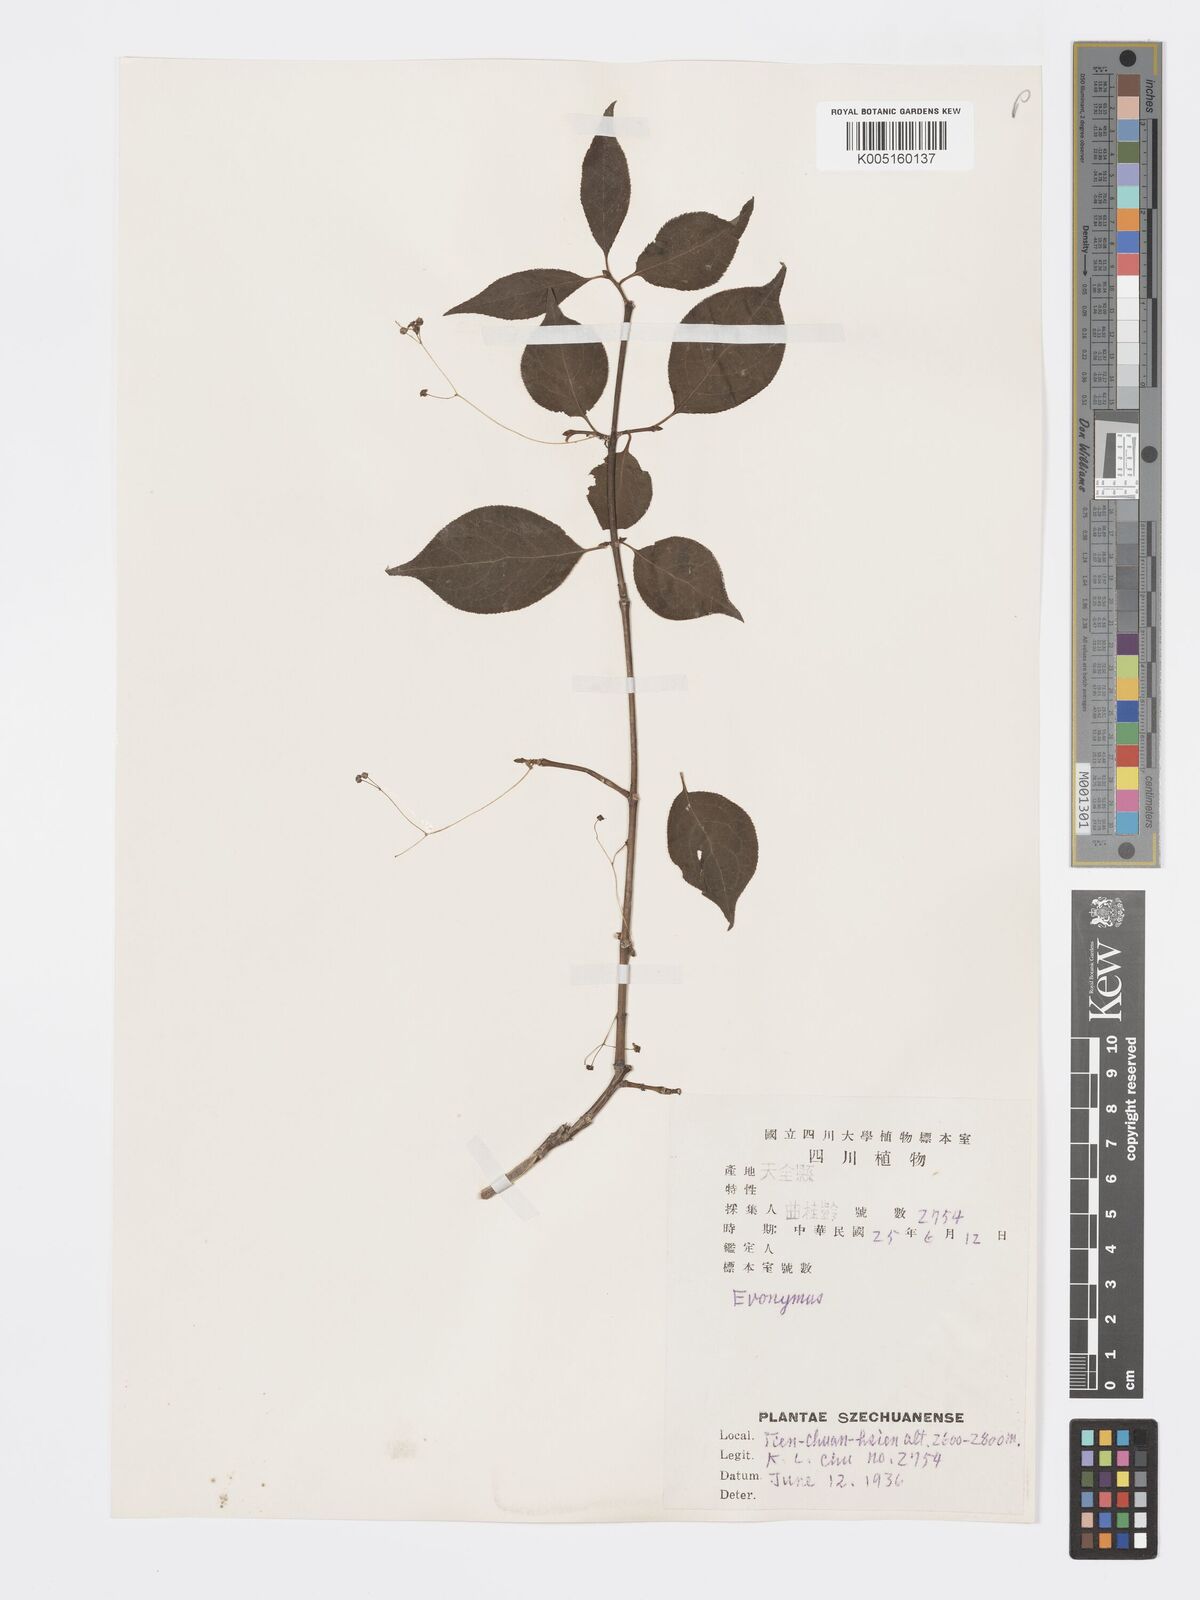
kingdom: Plantae
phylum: Tracheophyta
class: Magnoliopsida
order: Celastrales
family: Celastraceae
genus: Euonymus
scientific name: Euonymus frigidus
